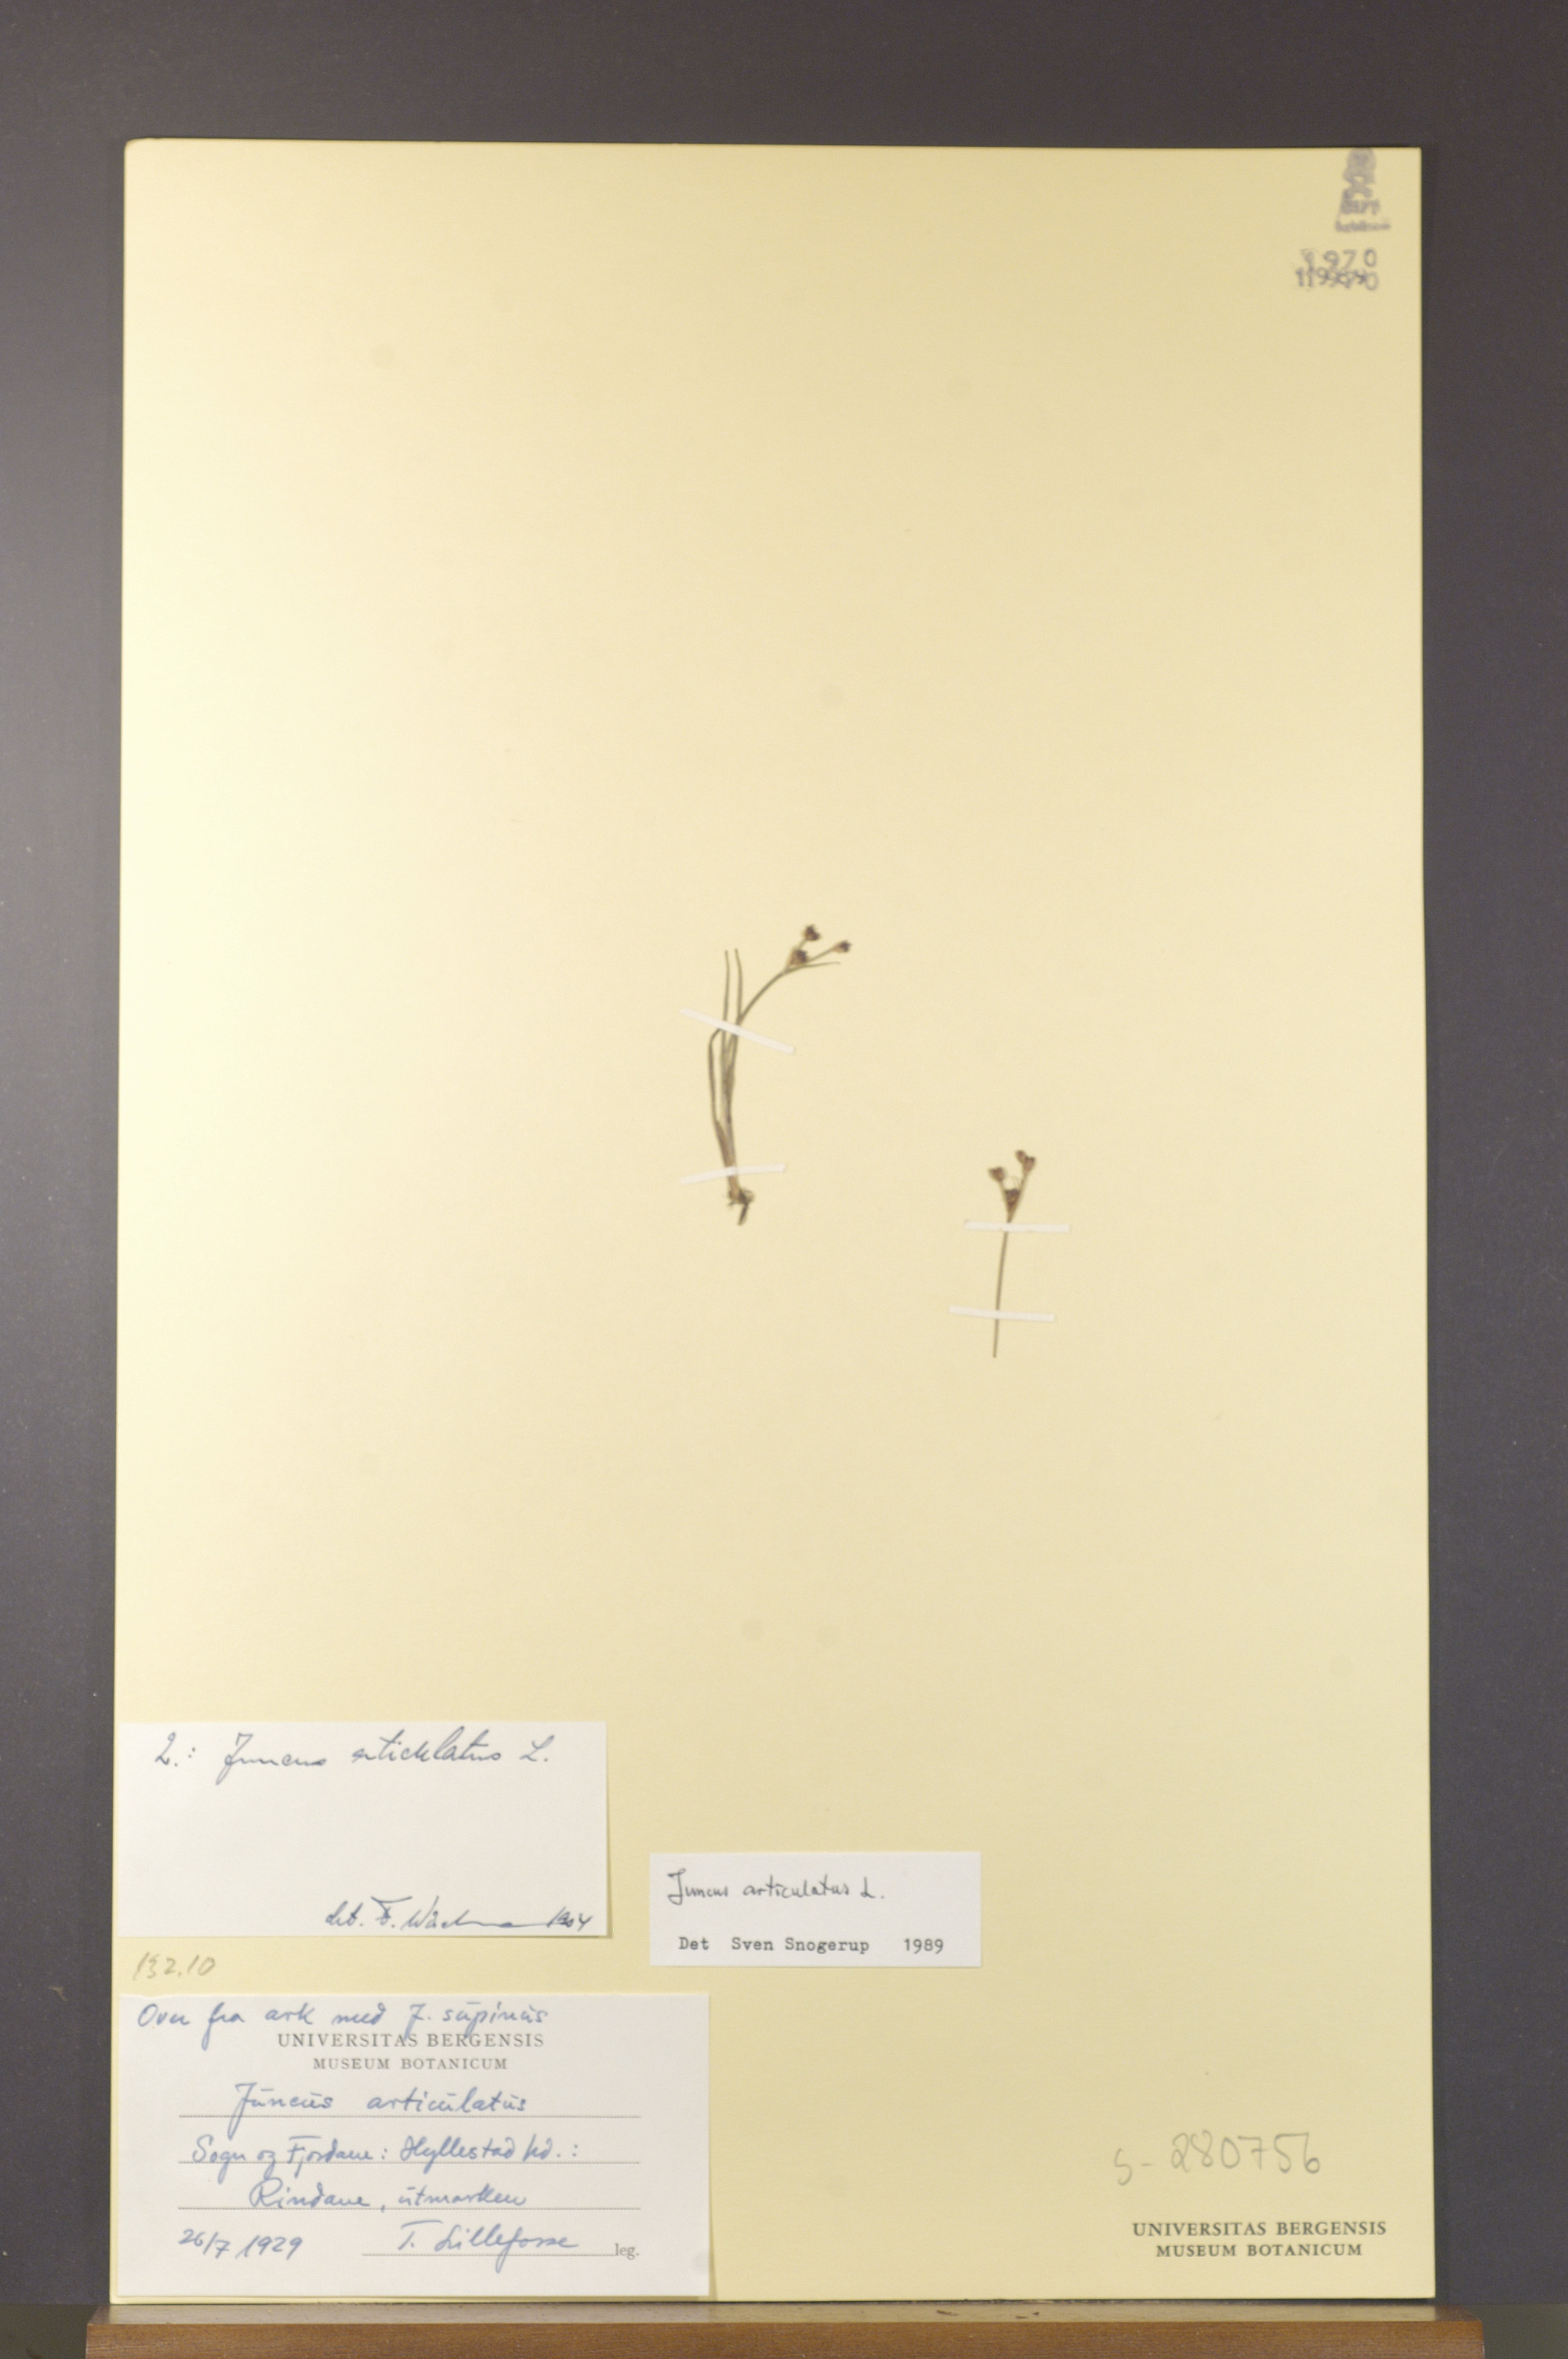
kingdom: Plantae
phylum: Tracheophyta
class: Liliopsida
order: Poales
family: Juncaceae
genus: Juncus
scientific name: Juncus articulatus
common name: Jointed rush
